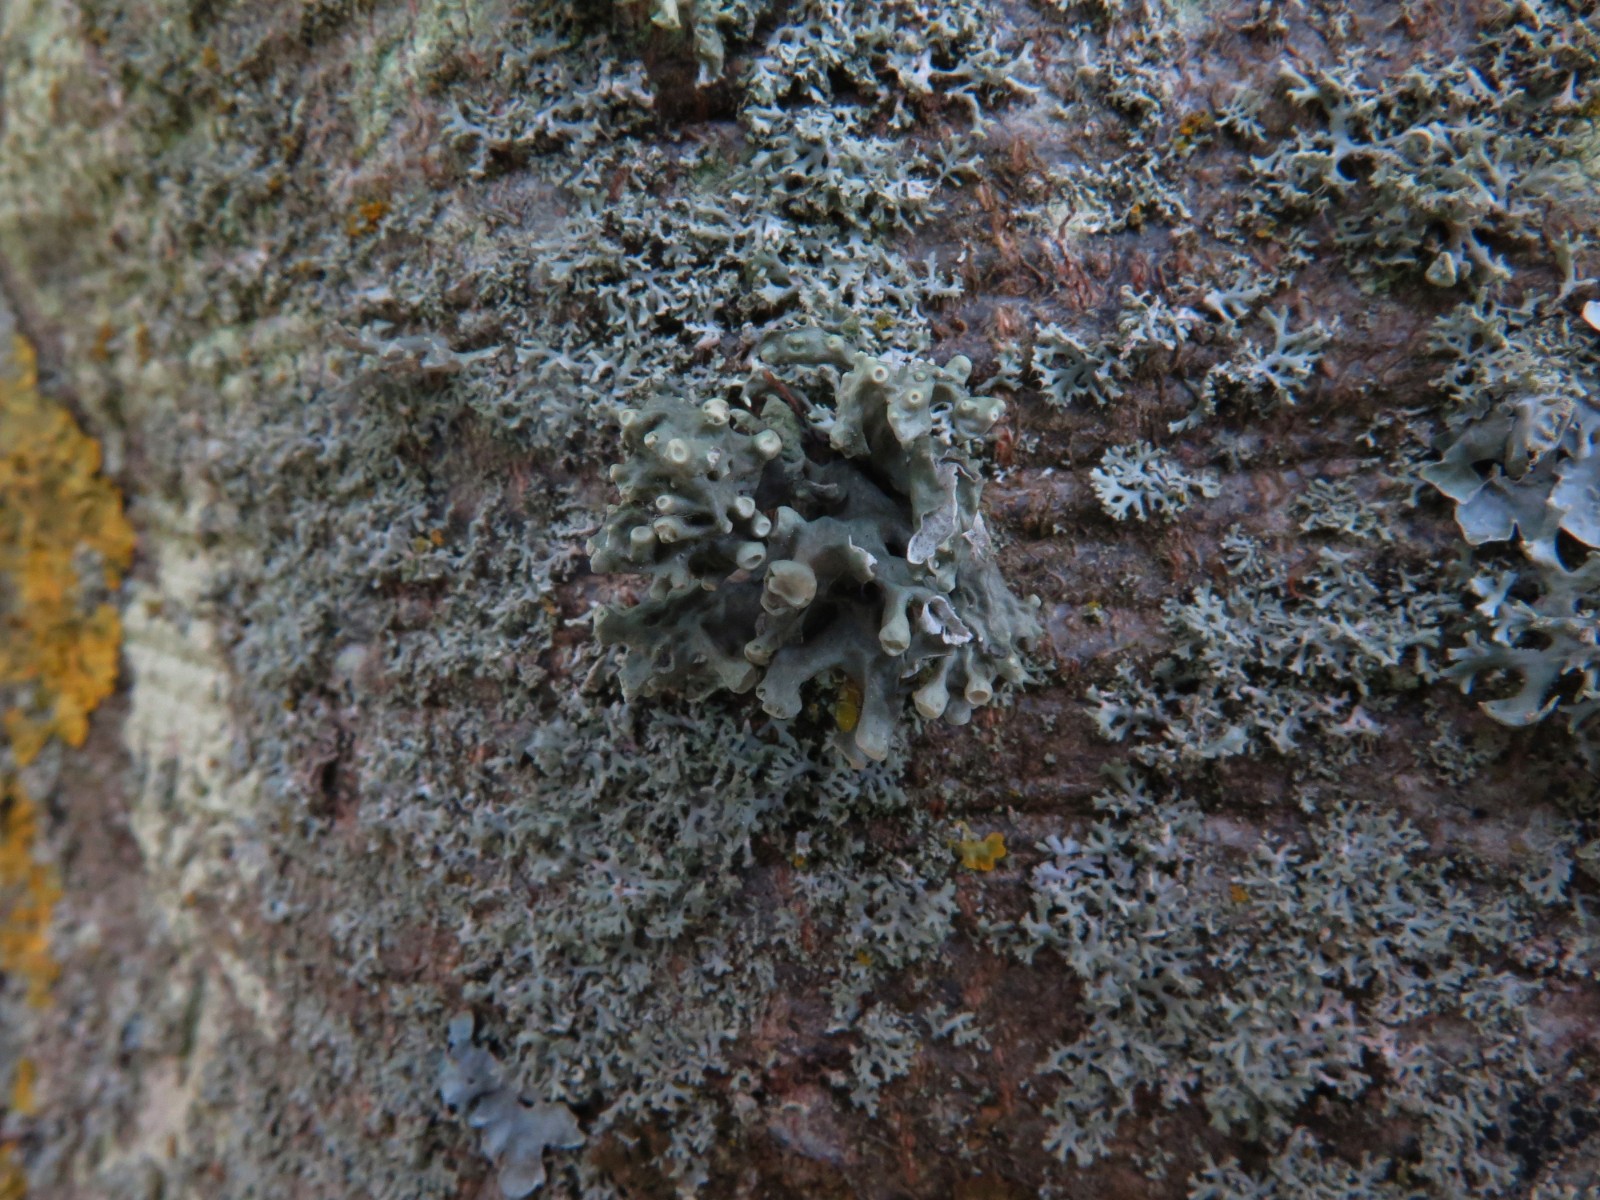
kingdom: Fungi
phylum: Ascomycota
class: Lecanoromycetes
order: Lecanorales
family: Ramalinaceae
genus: Ramalina
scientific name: Ramalina fastigiata
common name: tue-grenlav
